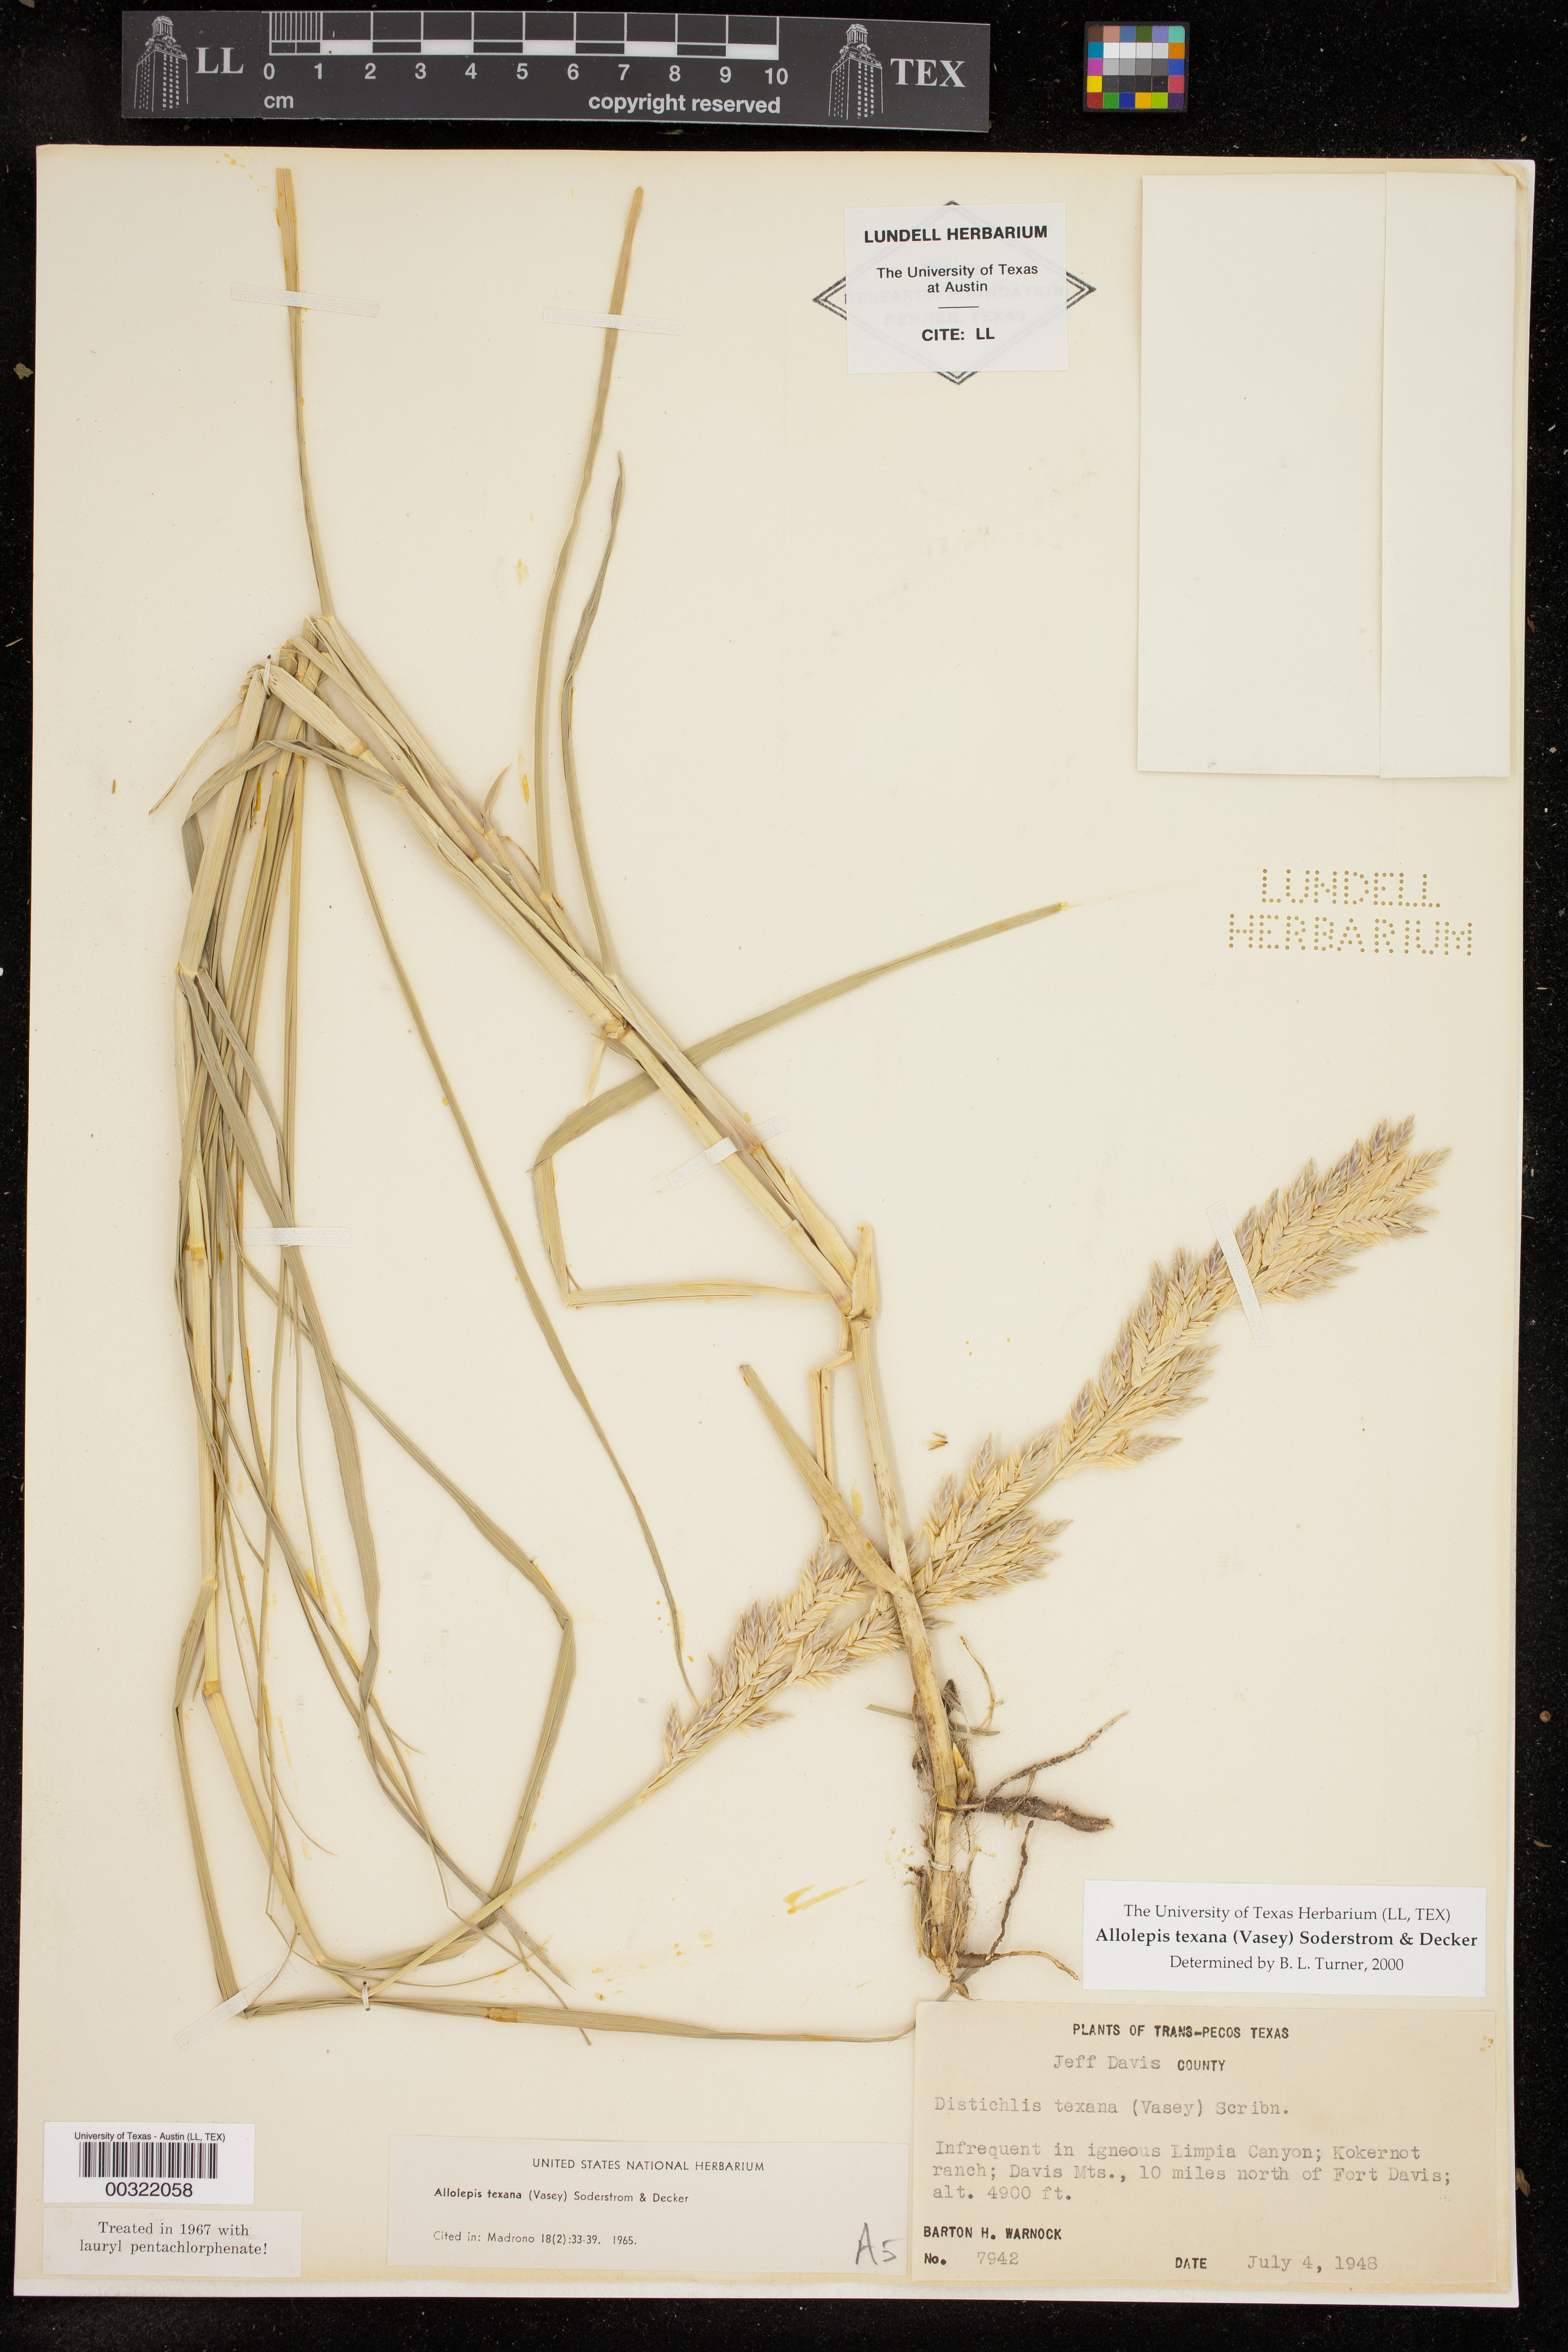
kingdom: Plantae
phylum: Tracheophyta
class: Liliopsida
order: Poales
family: Poaceae
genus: Allolepis
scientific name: Allolepis texana
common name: False salt grass
